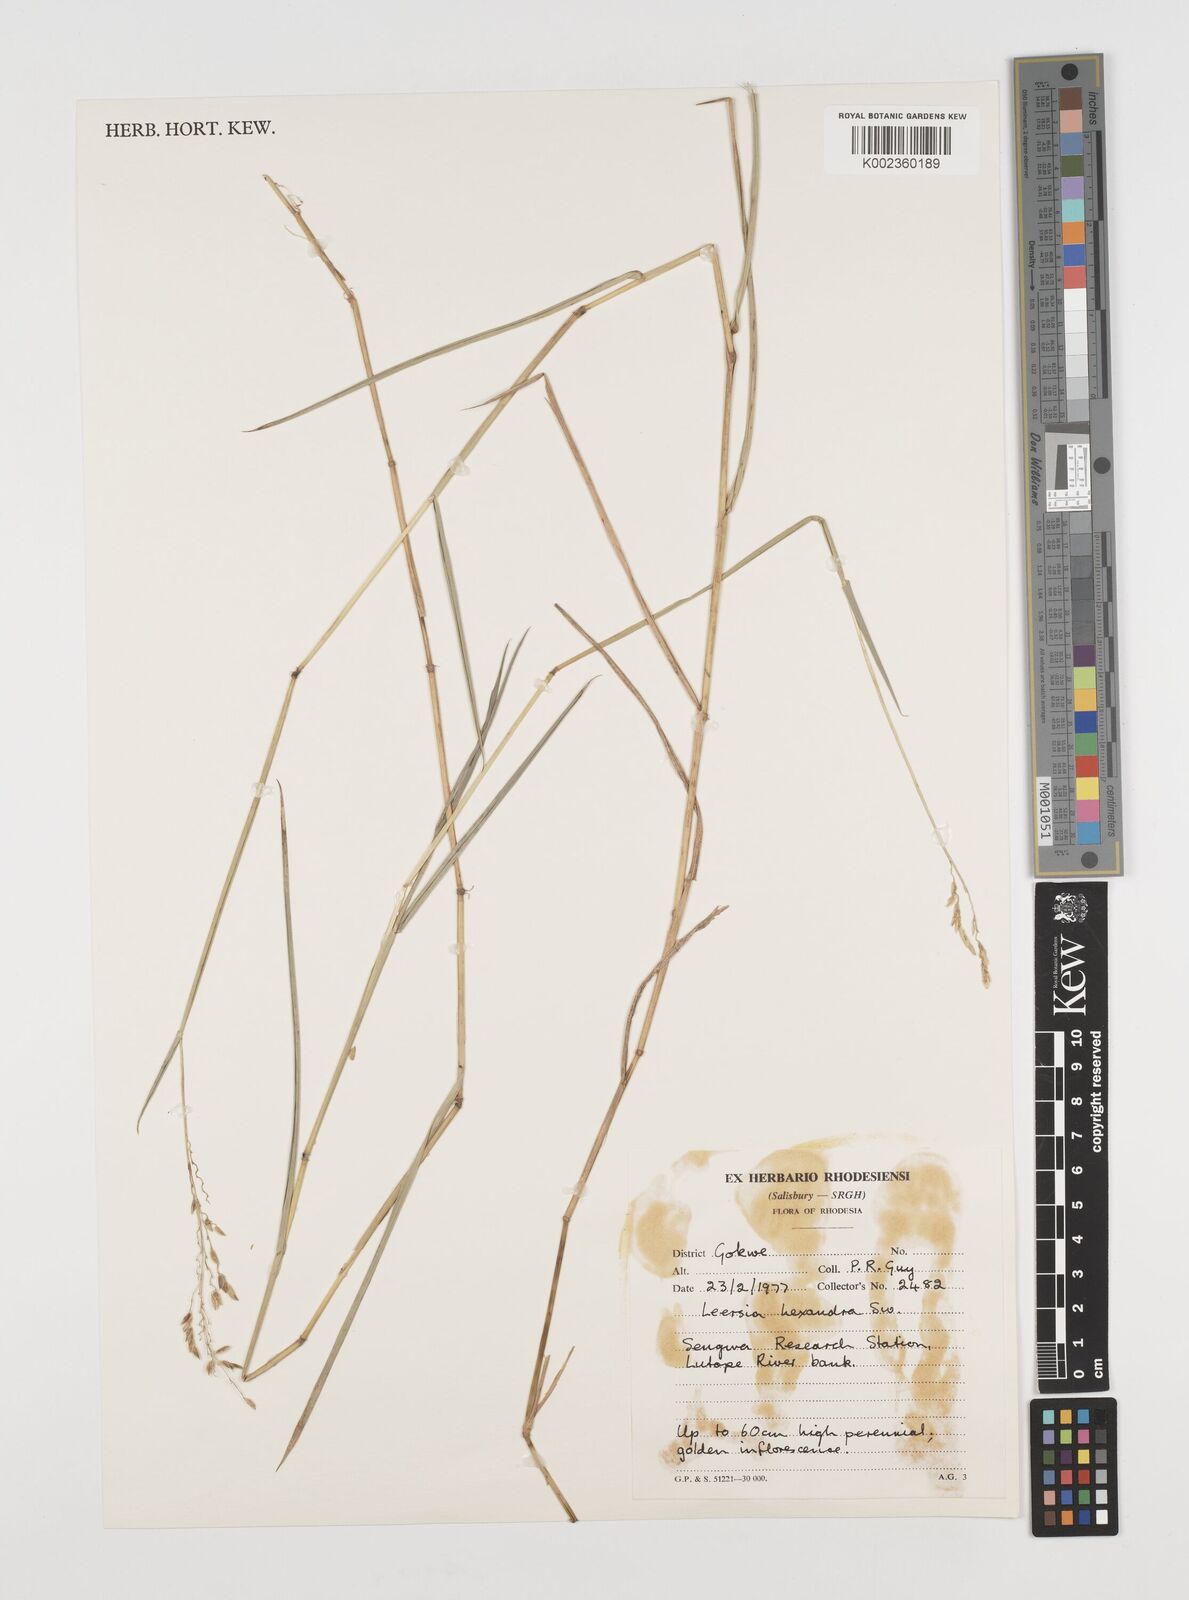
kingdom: Plantae
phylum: Tracheophyta
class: Liliopsida
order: Poales
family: Poaceae
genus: Leersia
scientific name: Leersia hexandra
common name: Southern cut grass
